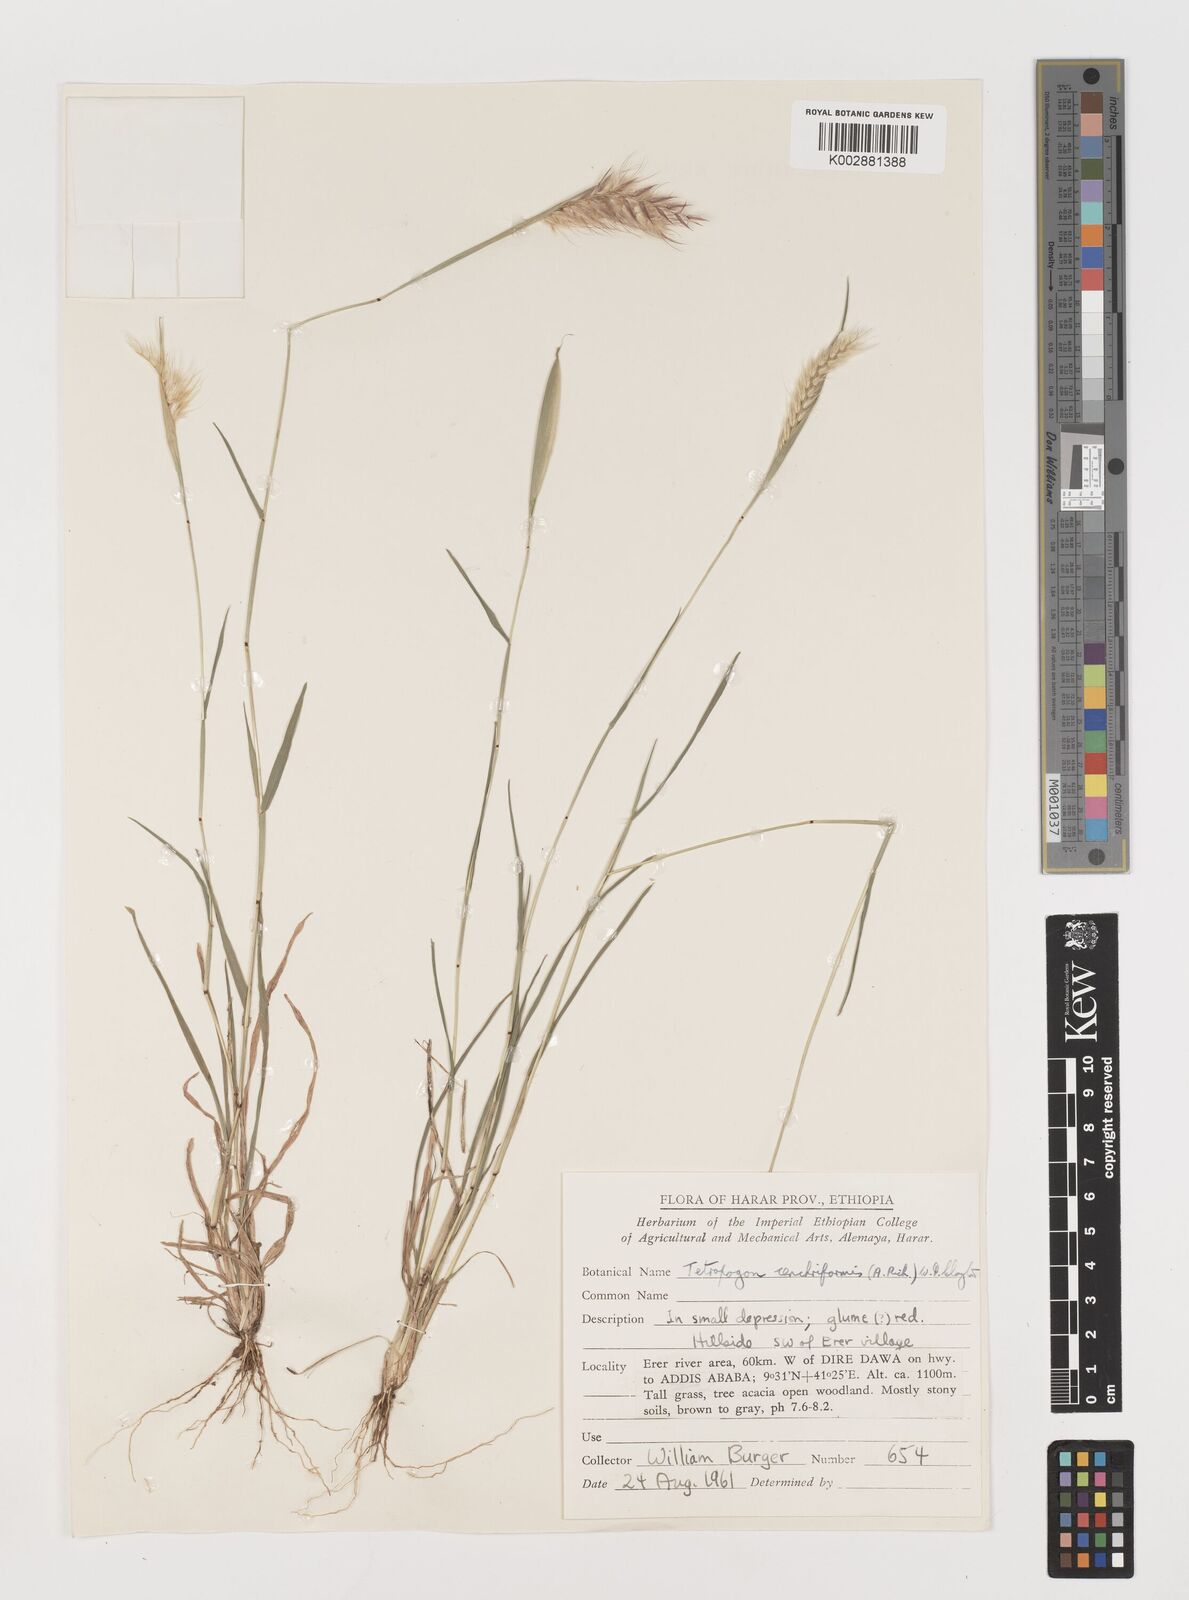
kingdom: Plantae
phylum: Tracheophyta
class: Liliopsida
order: Poales
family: Poaceae
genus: Tetrapogon
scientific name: Tetrapogon cenchriformis
